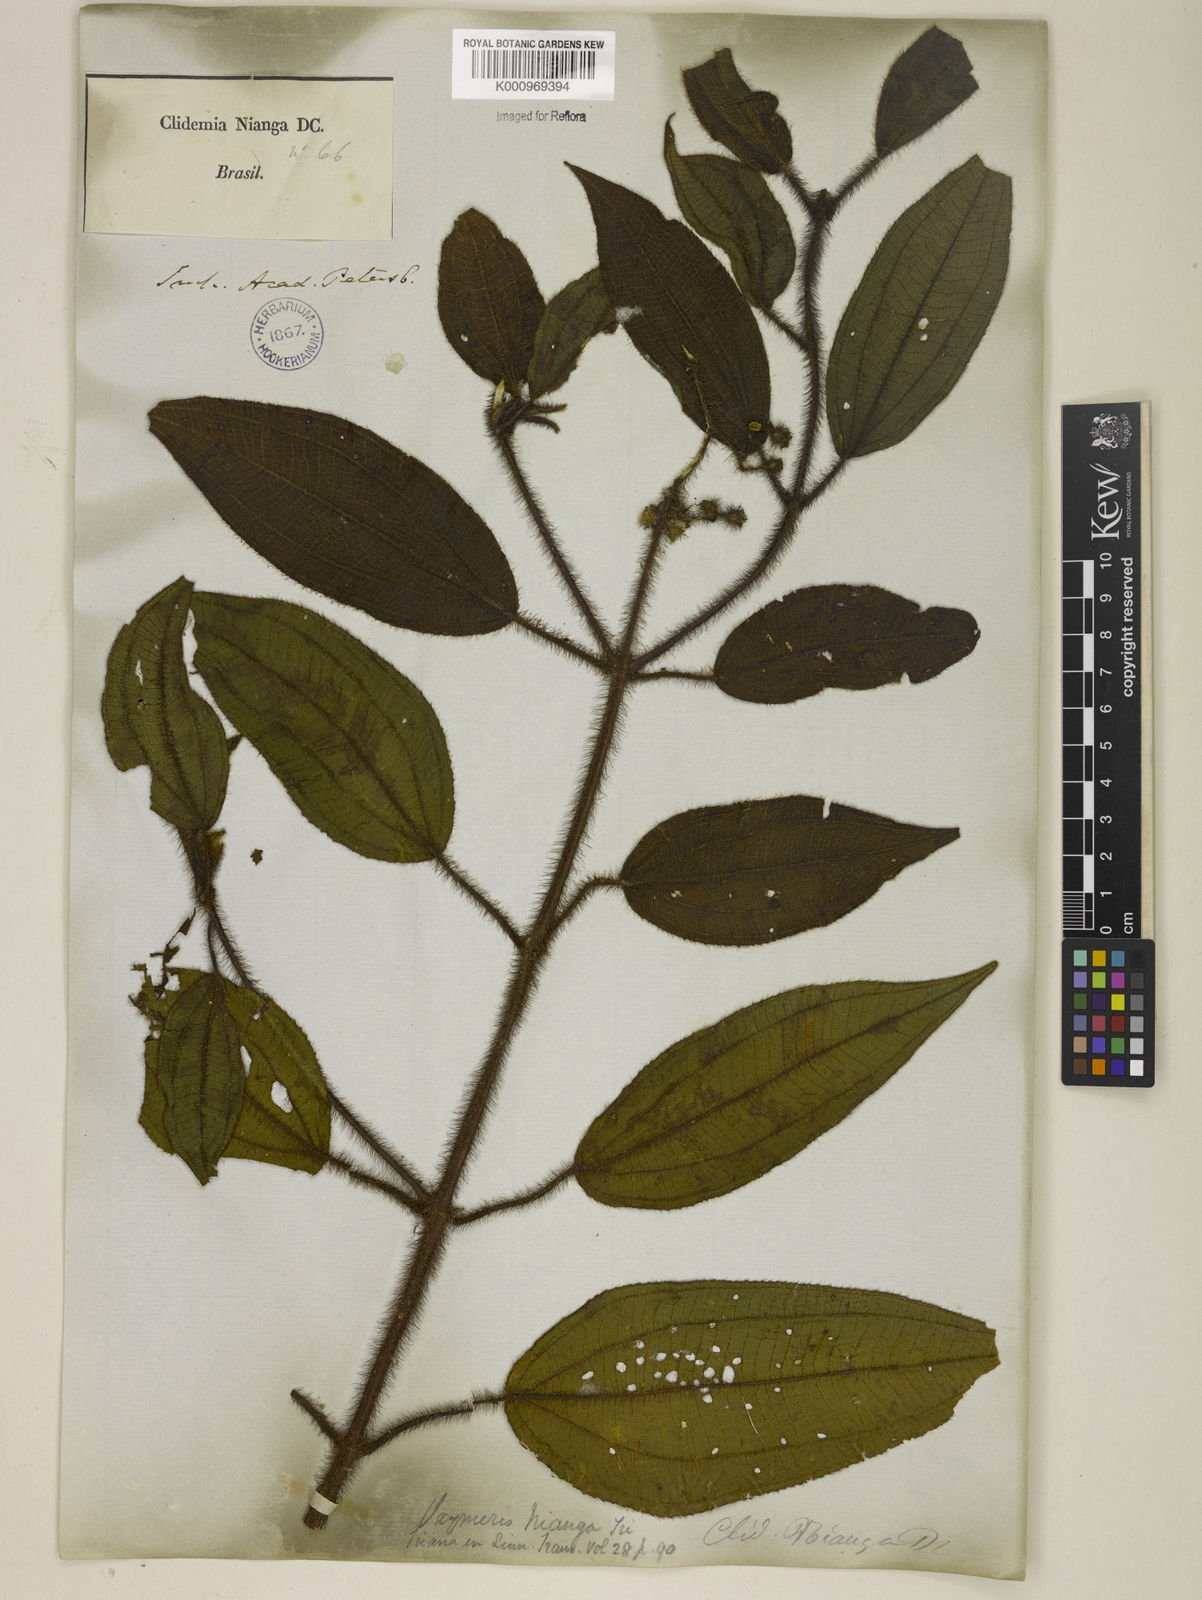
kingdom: Plantae
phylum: Tracheophyta
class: Magnoliopsida
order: Myrtales
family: Melastomataceae
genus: Miconia
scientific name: Miconia nianga
